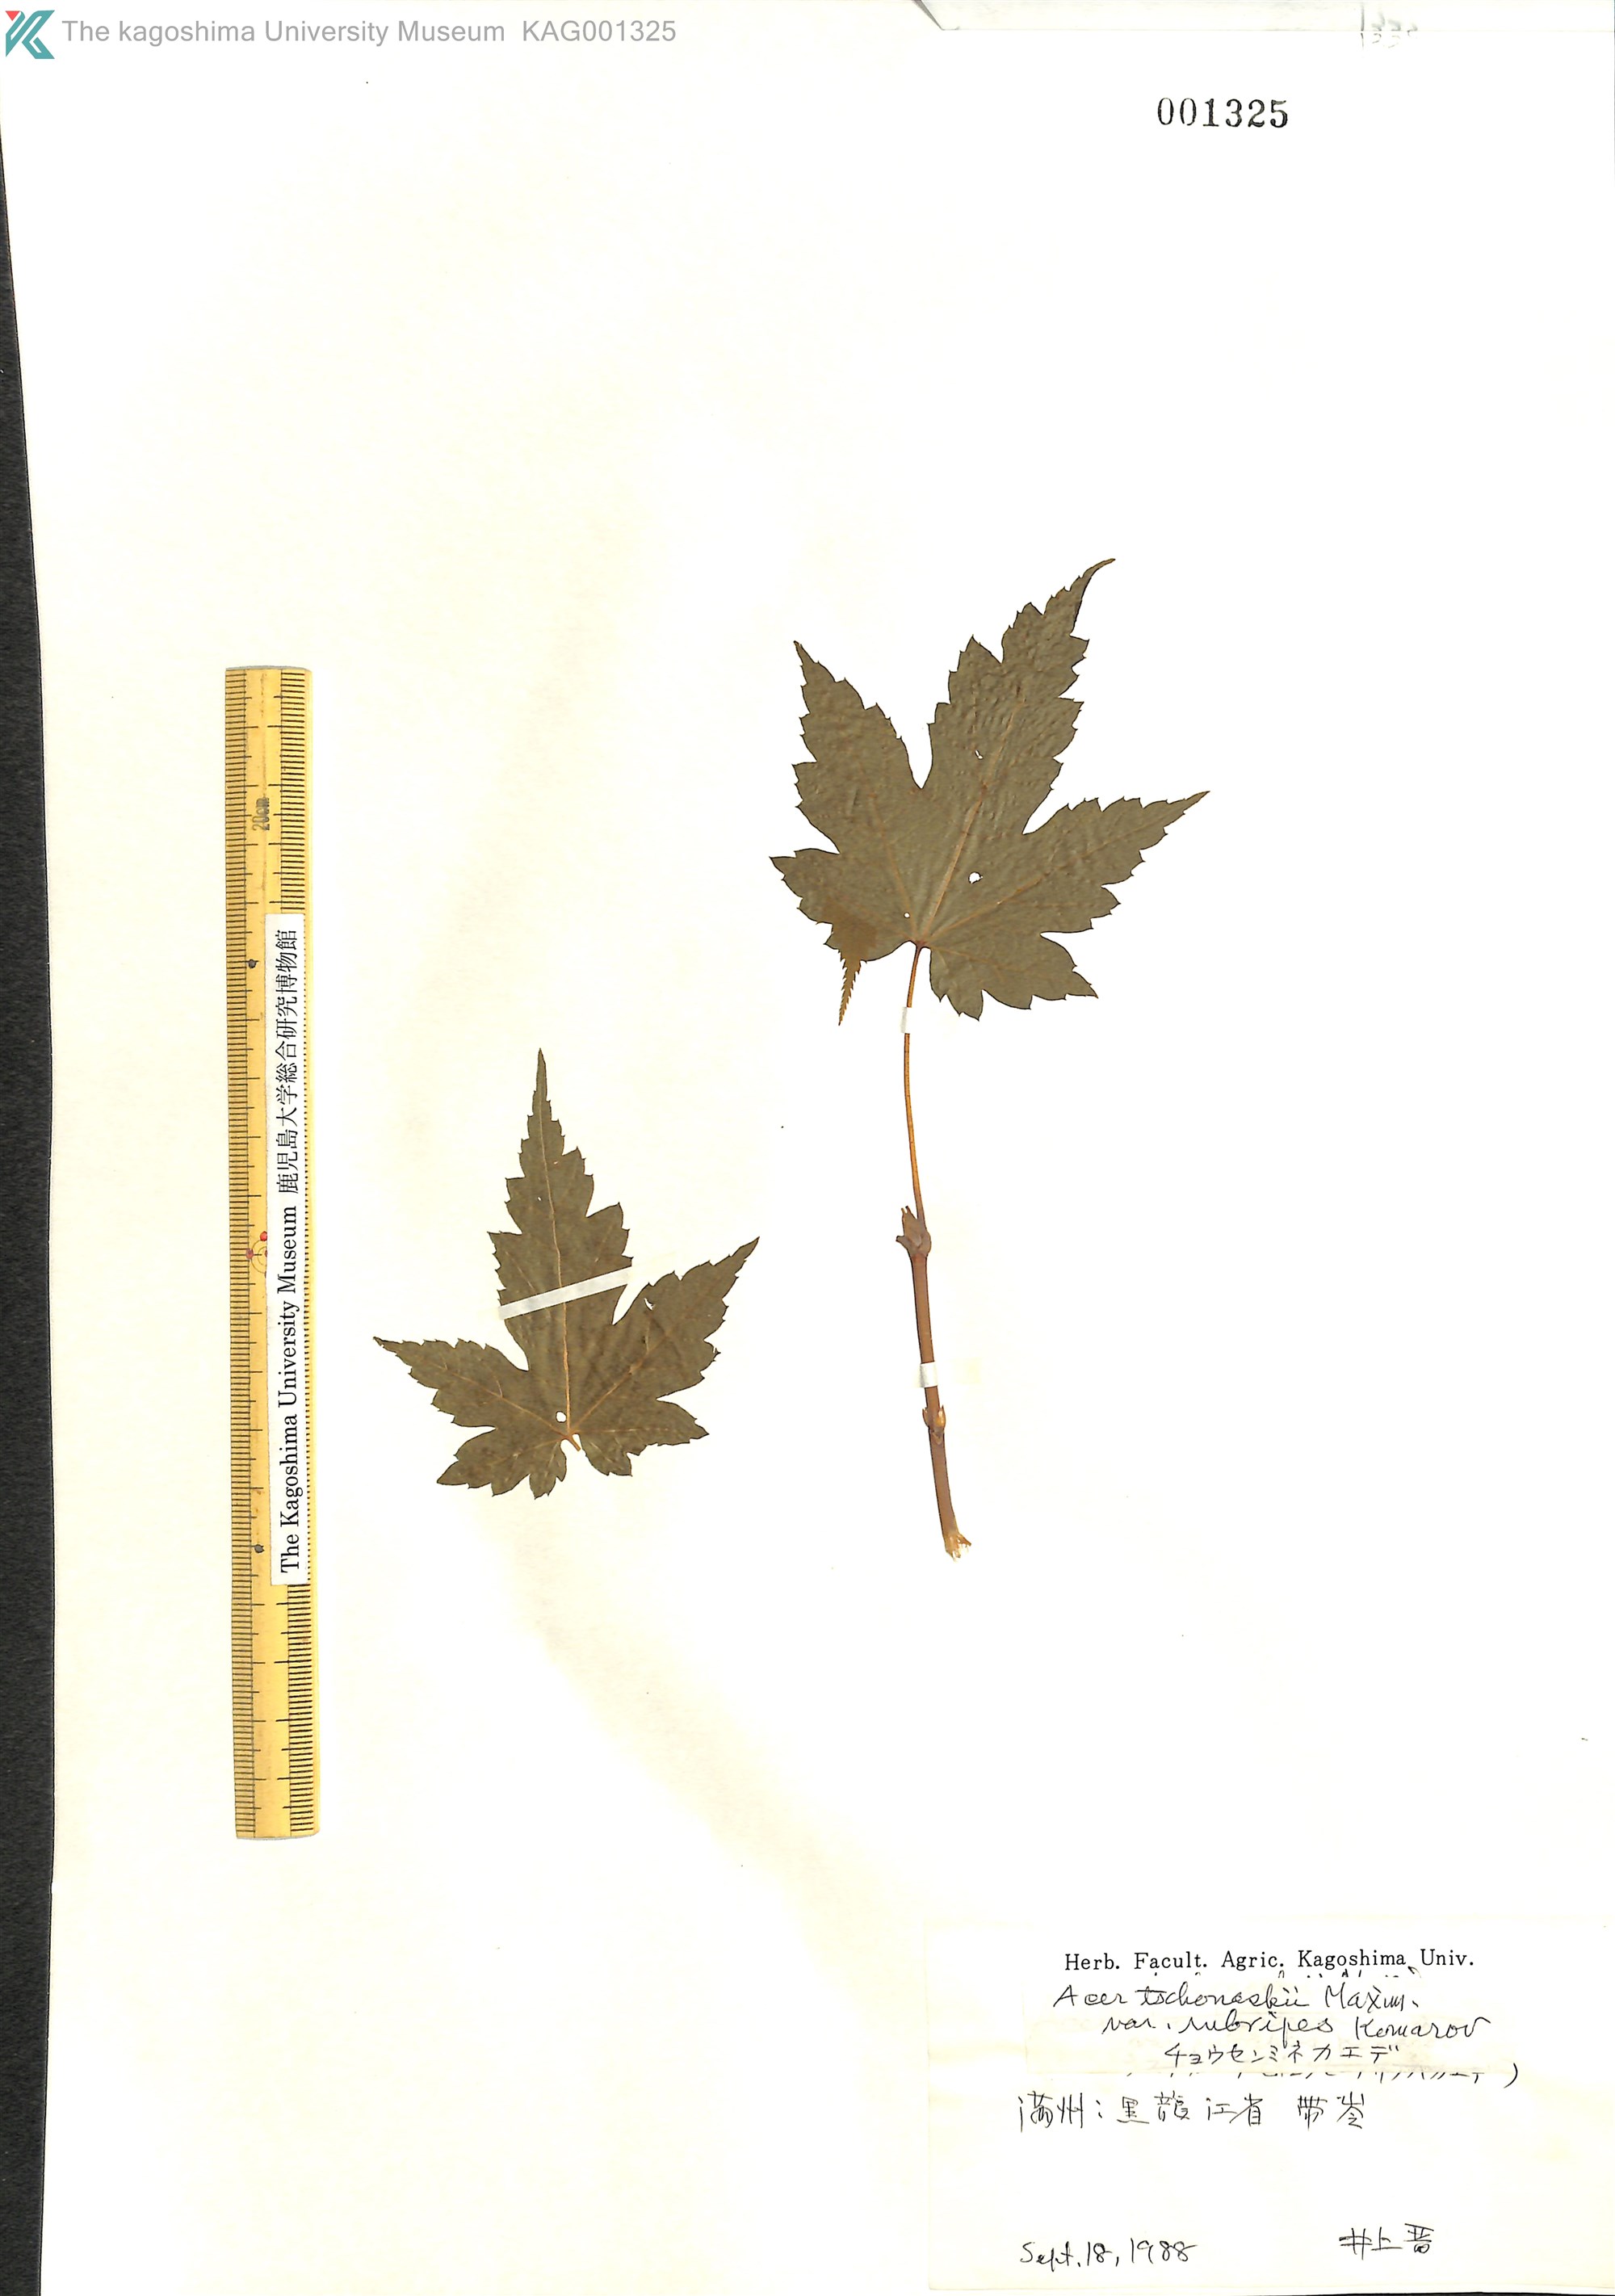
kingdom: Plantae
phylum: Tracheophyta
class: Magnoliopsida
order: Sapindales
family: Sapindaceae
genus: Acer
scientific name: Acer komarovii
